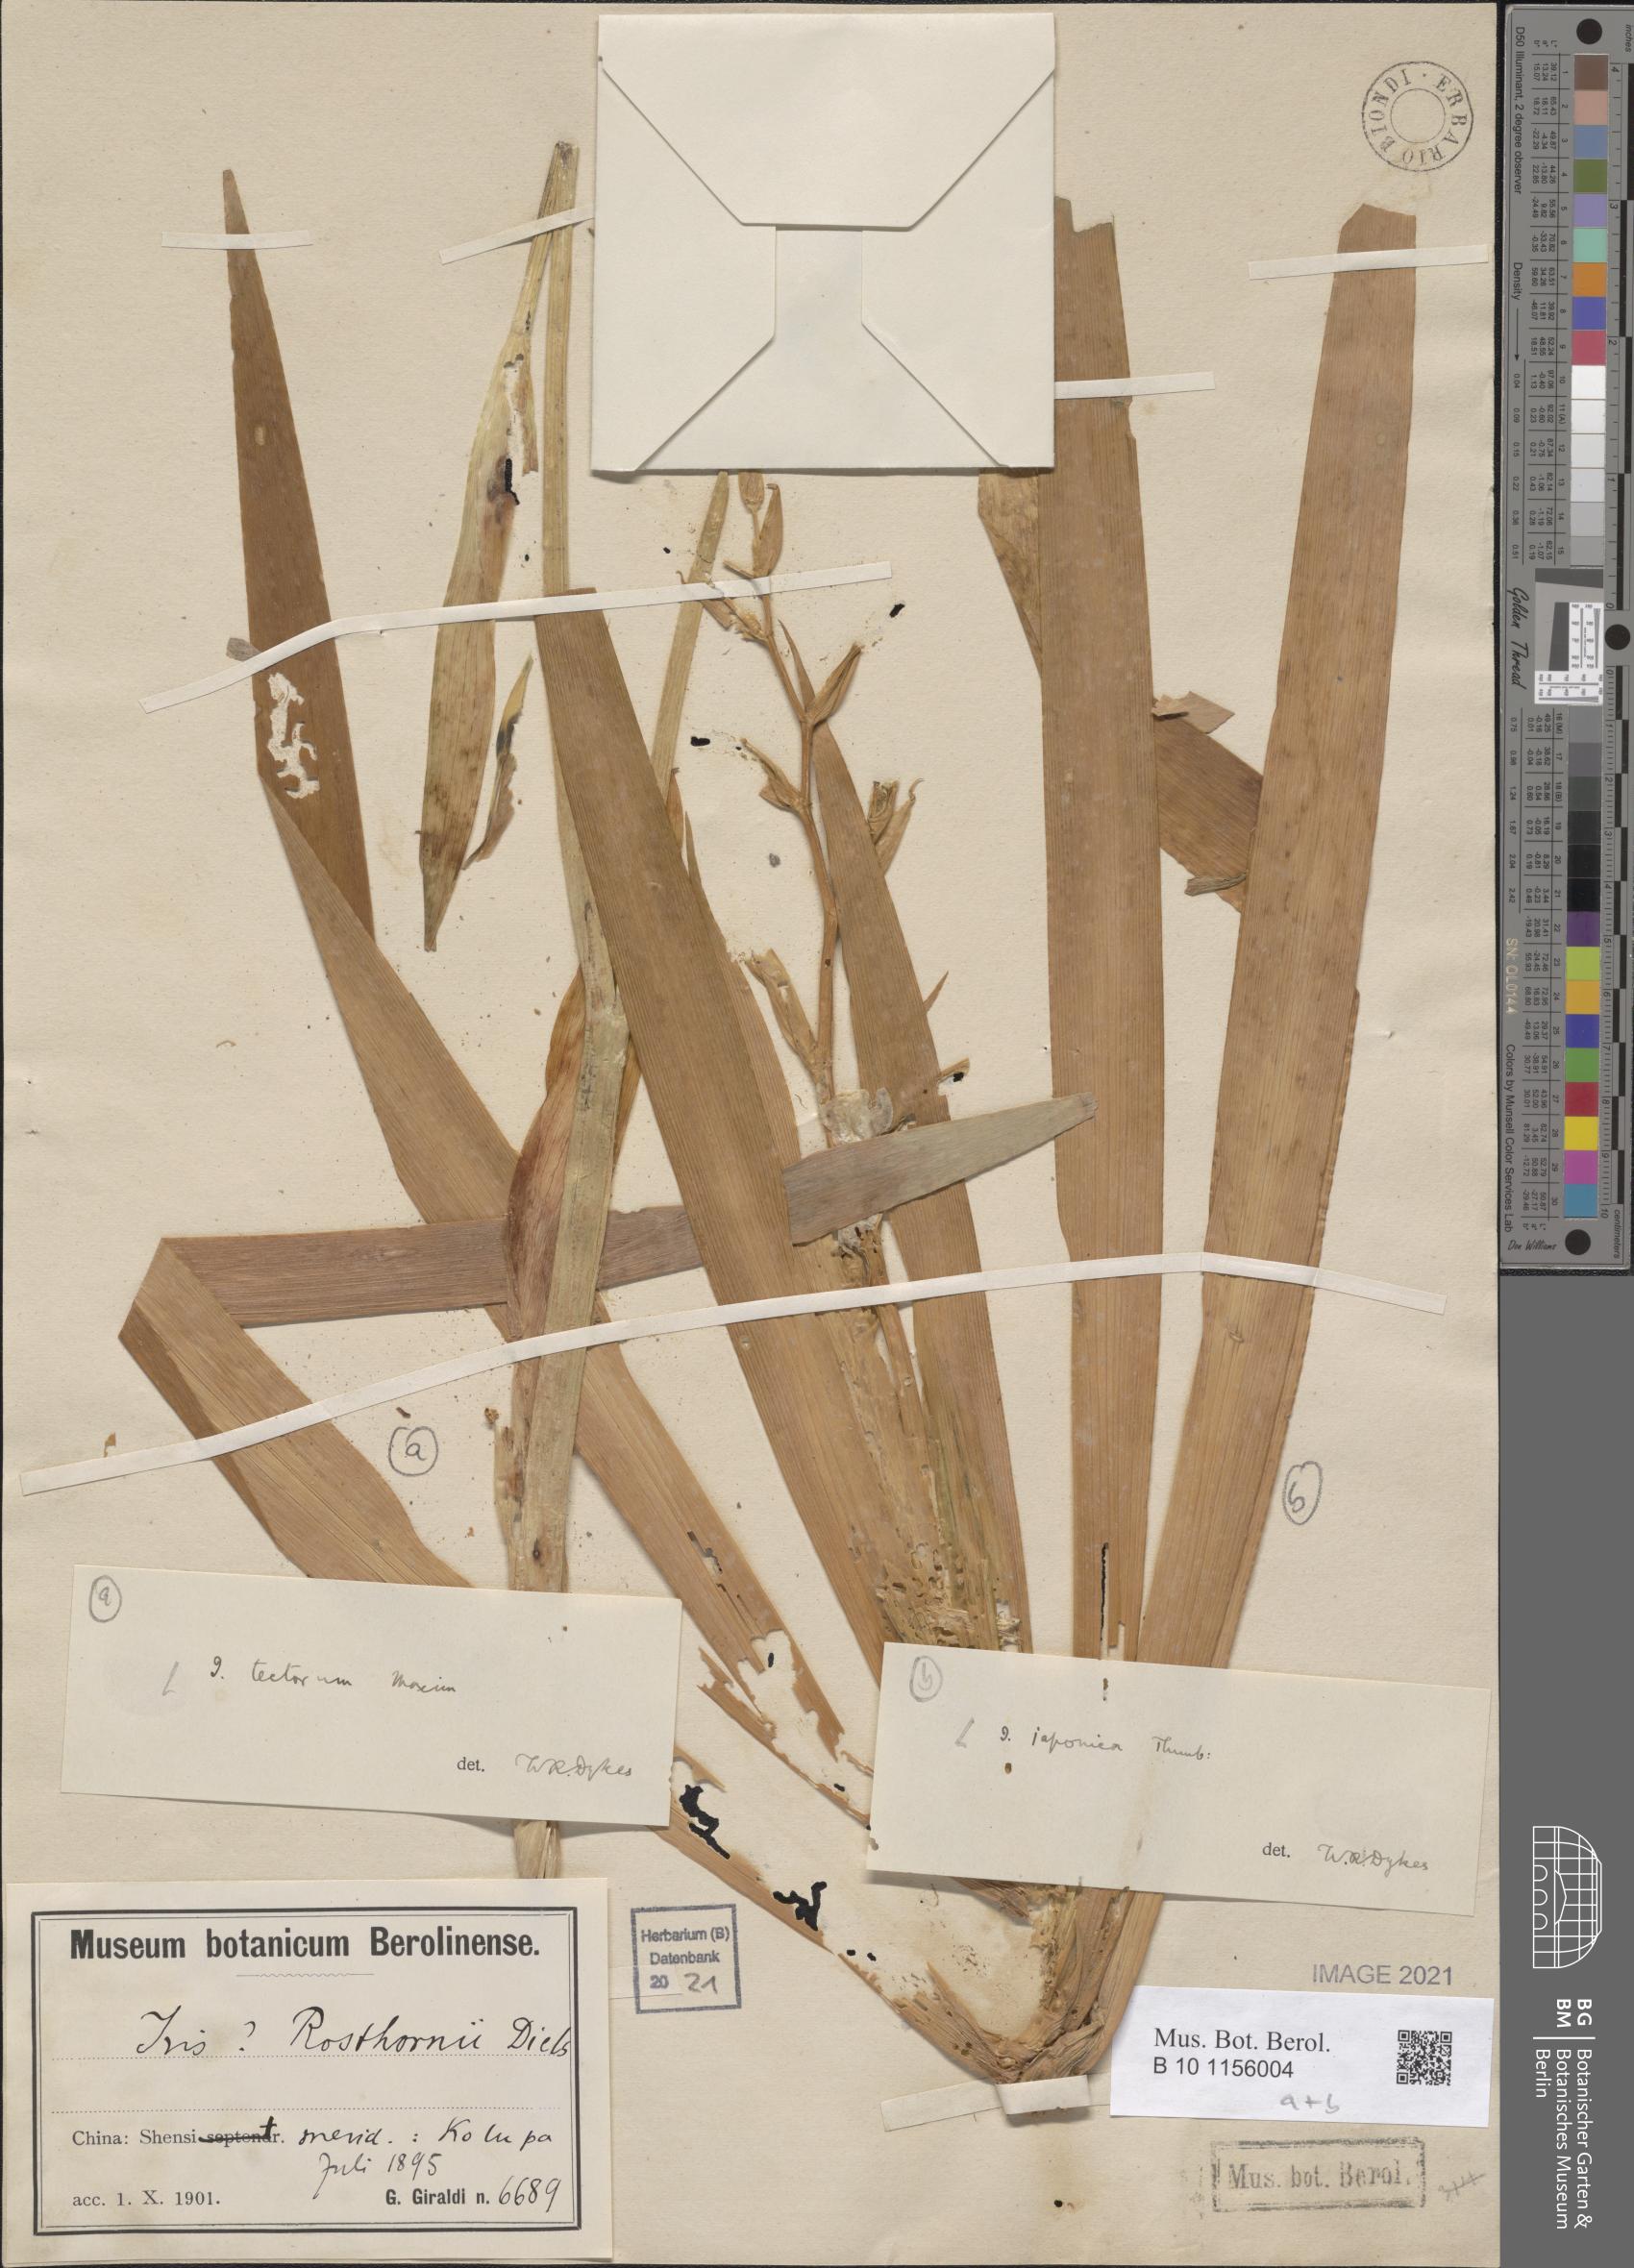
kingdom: Plantae
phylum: Tracheophyta
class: Liliopsida
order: Asparagales
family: Iridaceae
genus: Iris
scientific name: Iris tectorum
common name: Wall iris
